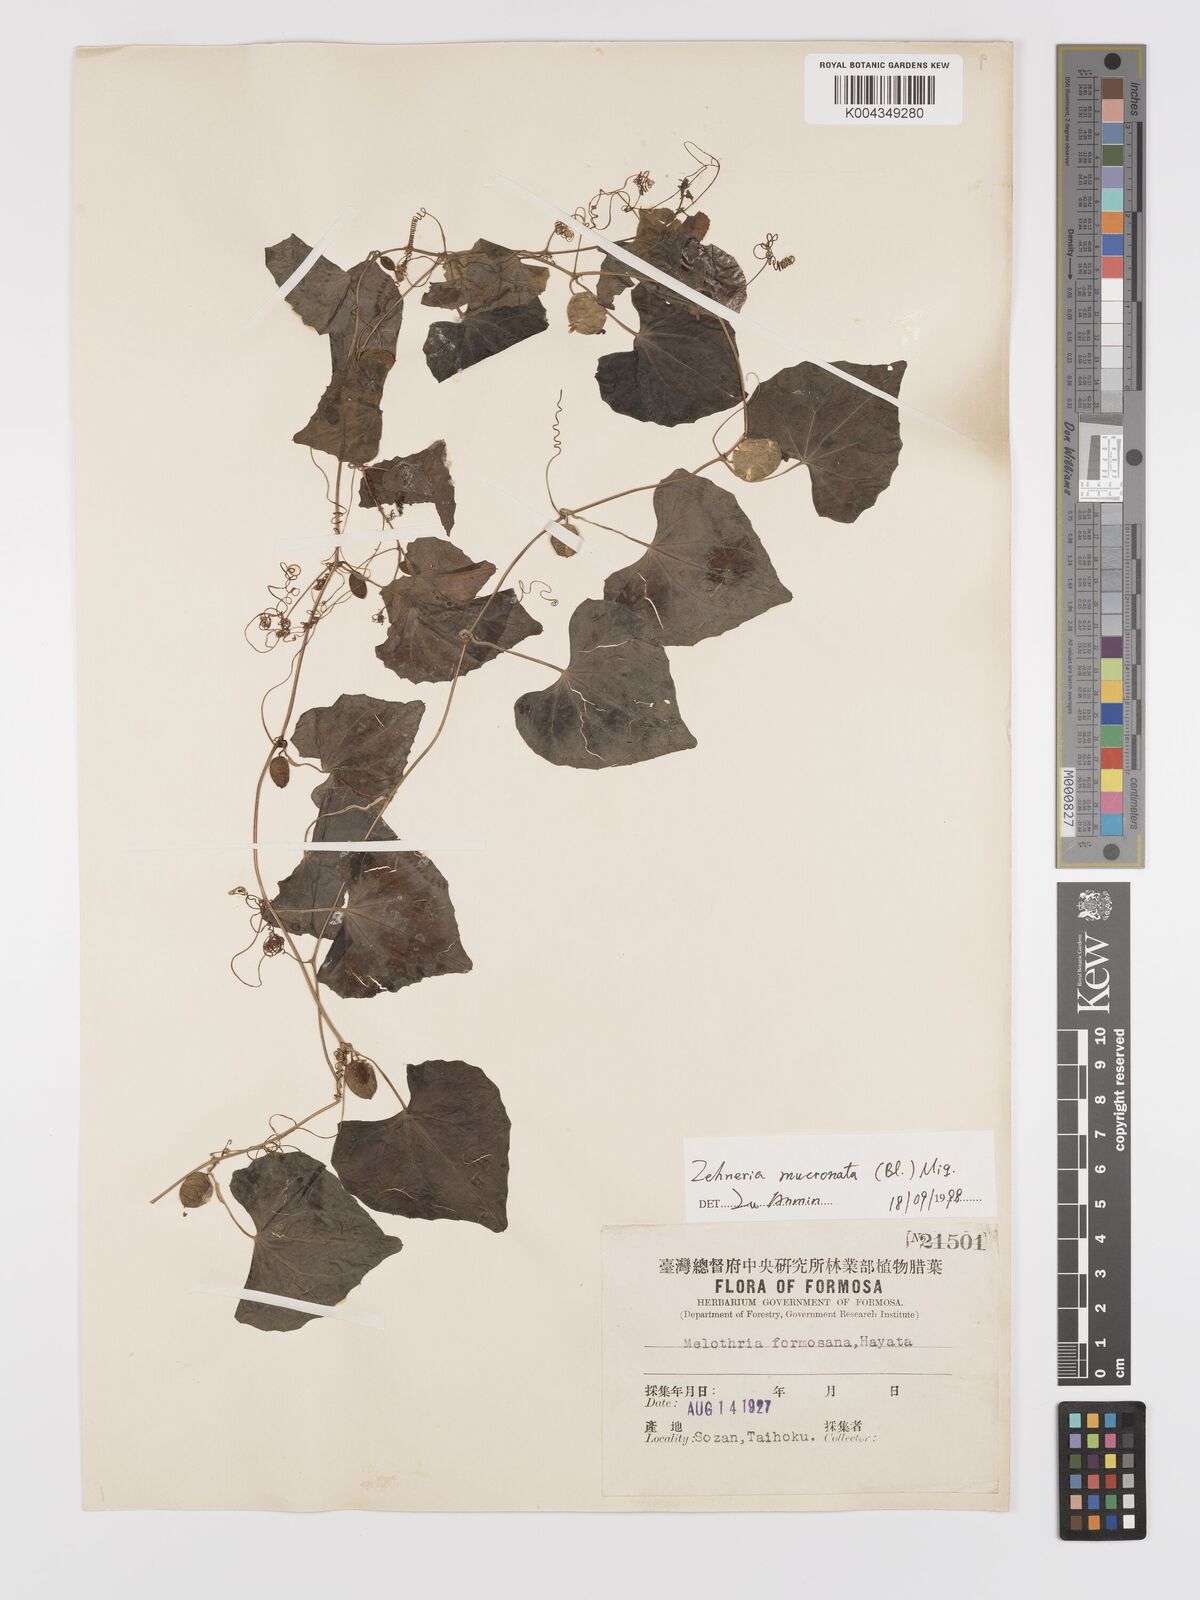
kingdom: Plantae
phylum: Tracheophyta
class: Magnoliopsida
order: Cucurbitales
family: Cucurbitaceae
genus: Zehneria
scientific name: Zehneria mucronata
